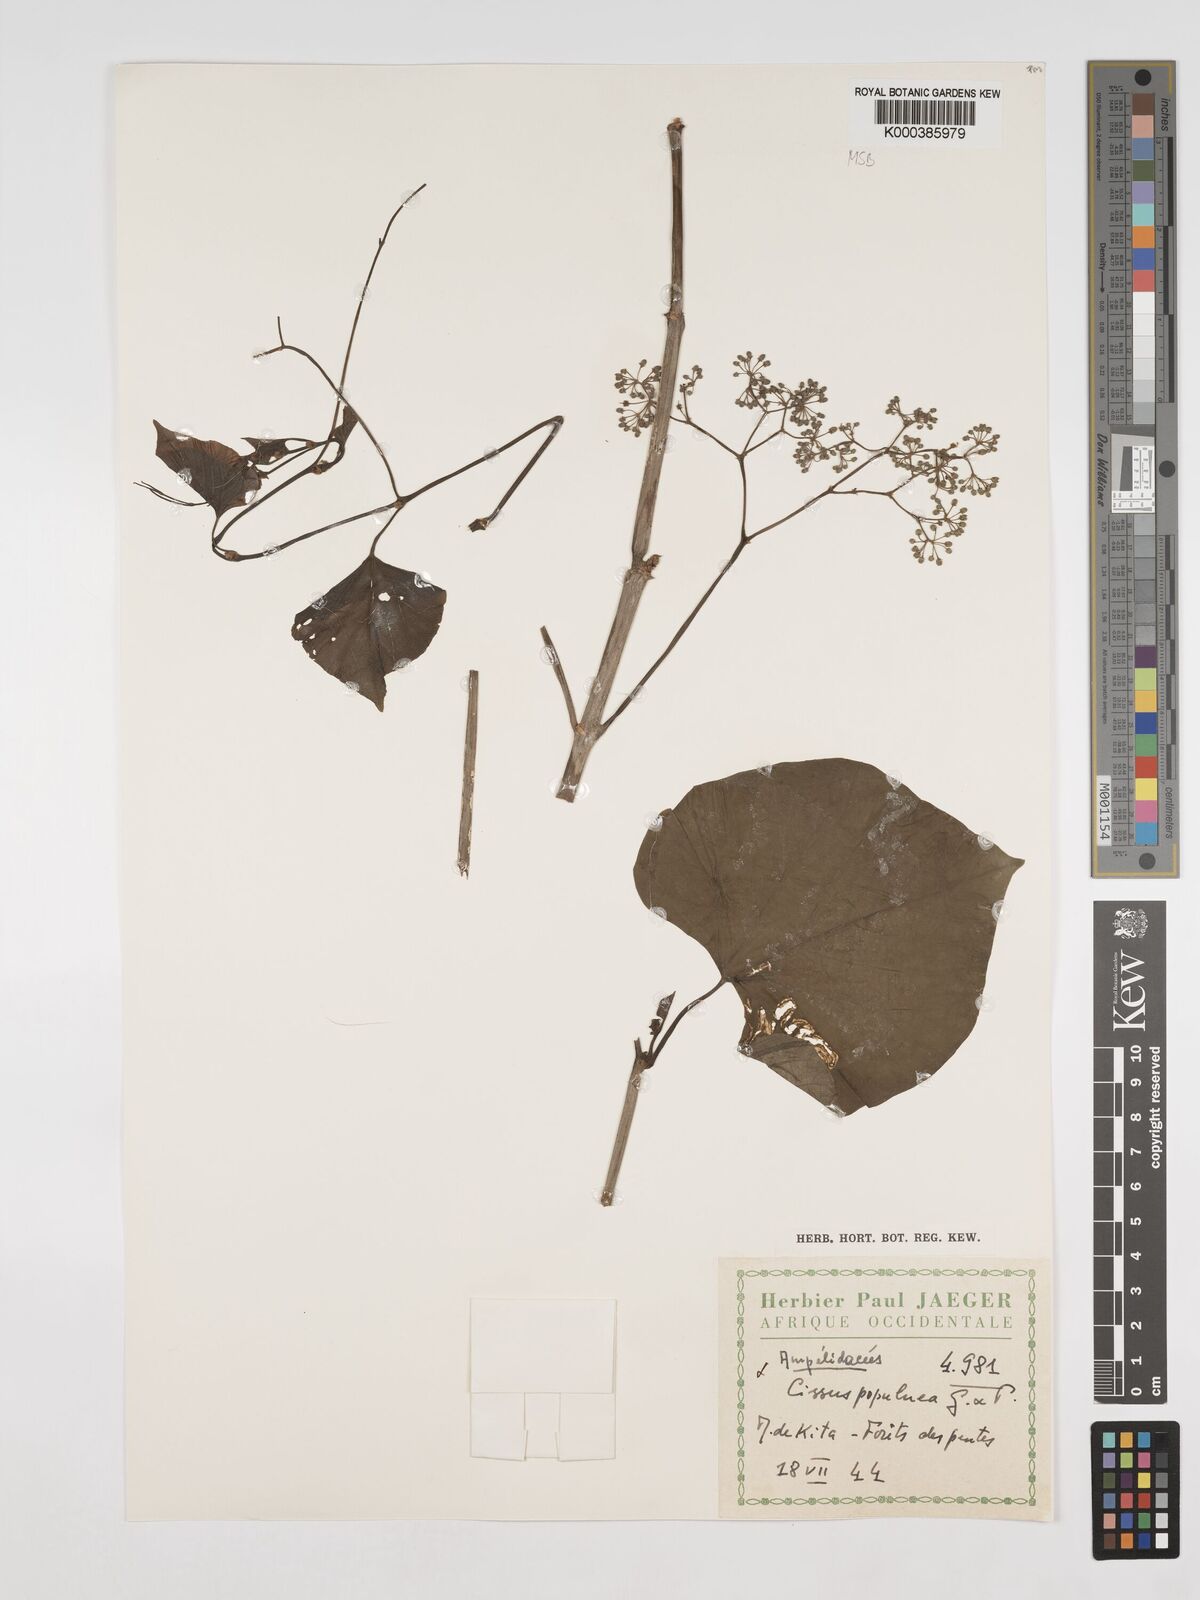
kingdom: Plantae
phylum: Tracheophyta
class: Magnoliopsida
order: Vitales
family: Vitaceae
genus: Cissus
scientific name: Cissus populnea
